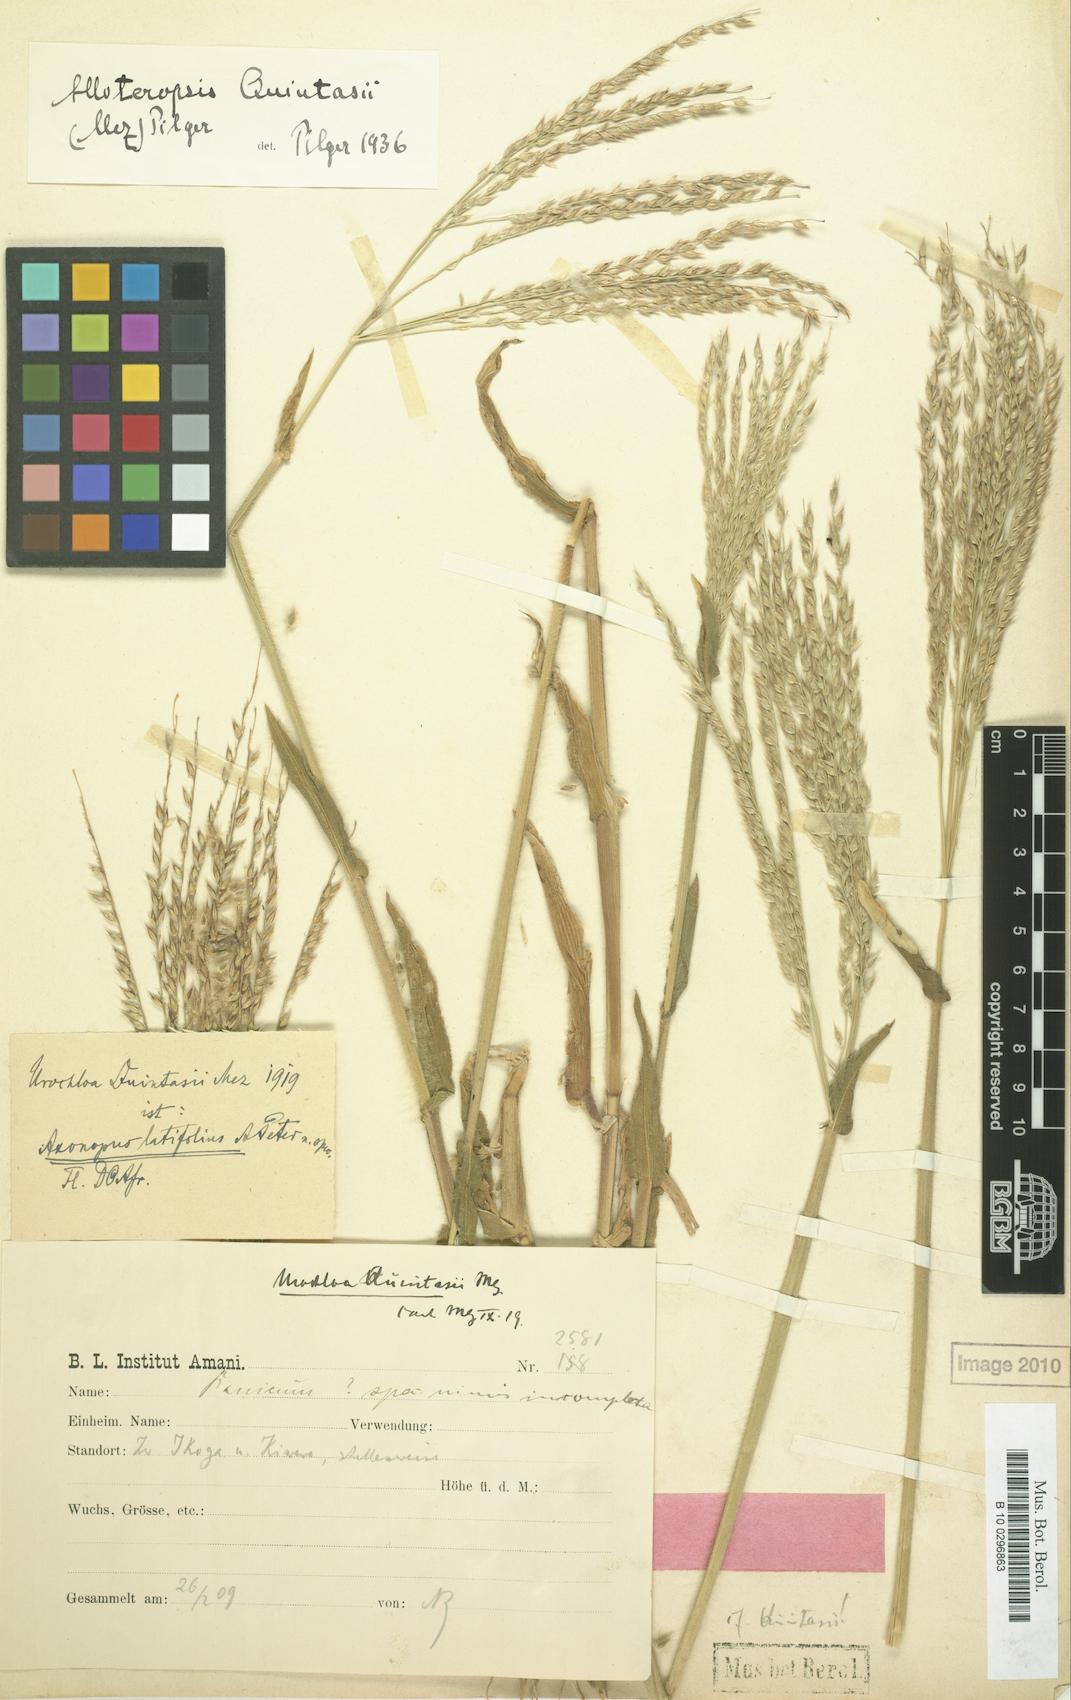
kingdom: Plantae
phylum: Tracheophyta
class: Liliopsida
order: Poales
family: Poaceae
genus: Alloteropsis
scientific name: Alloteropsis cimicina
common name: Summergrass
